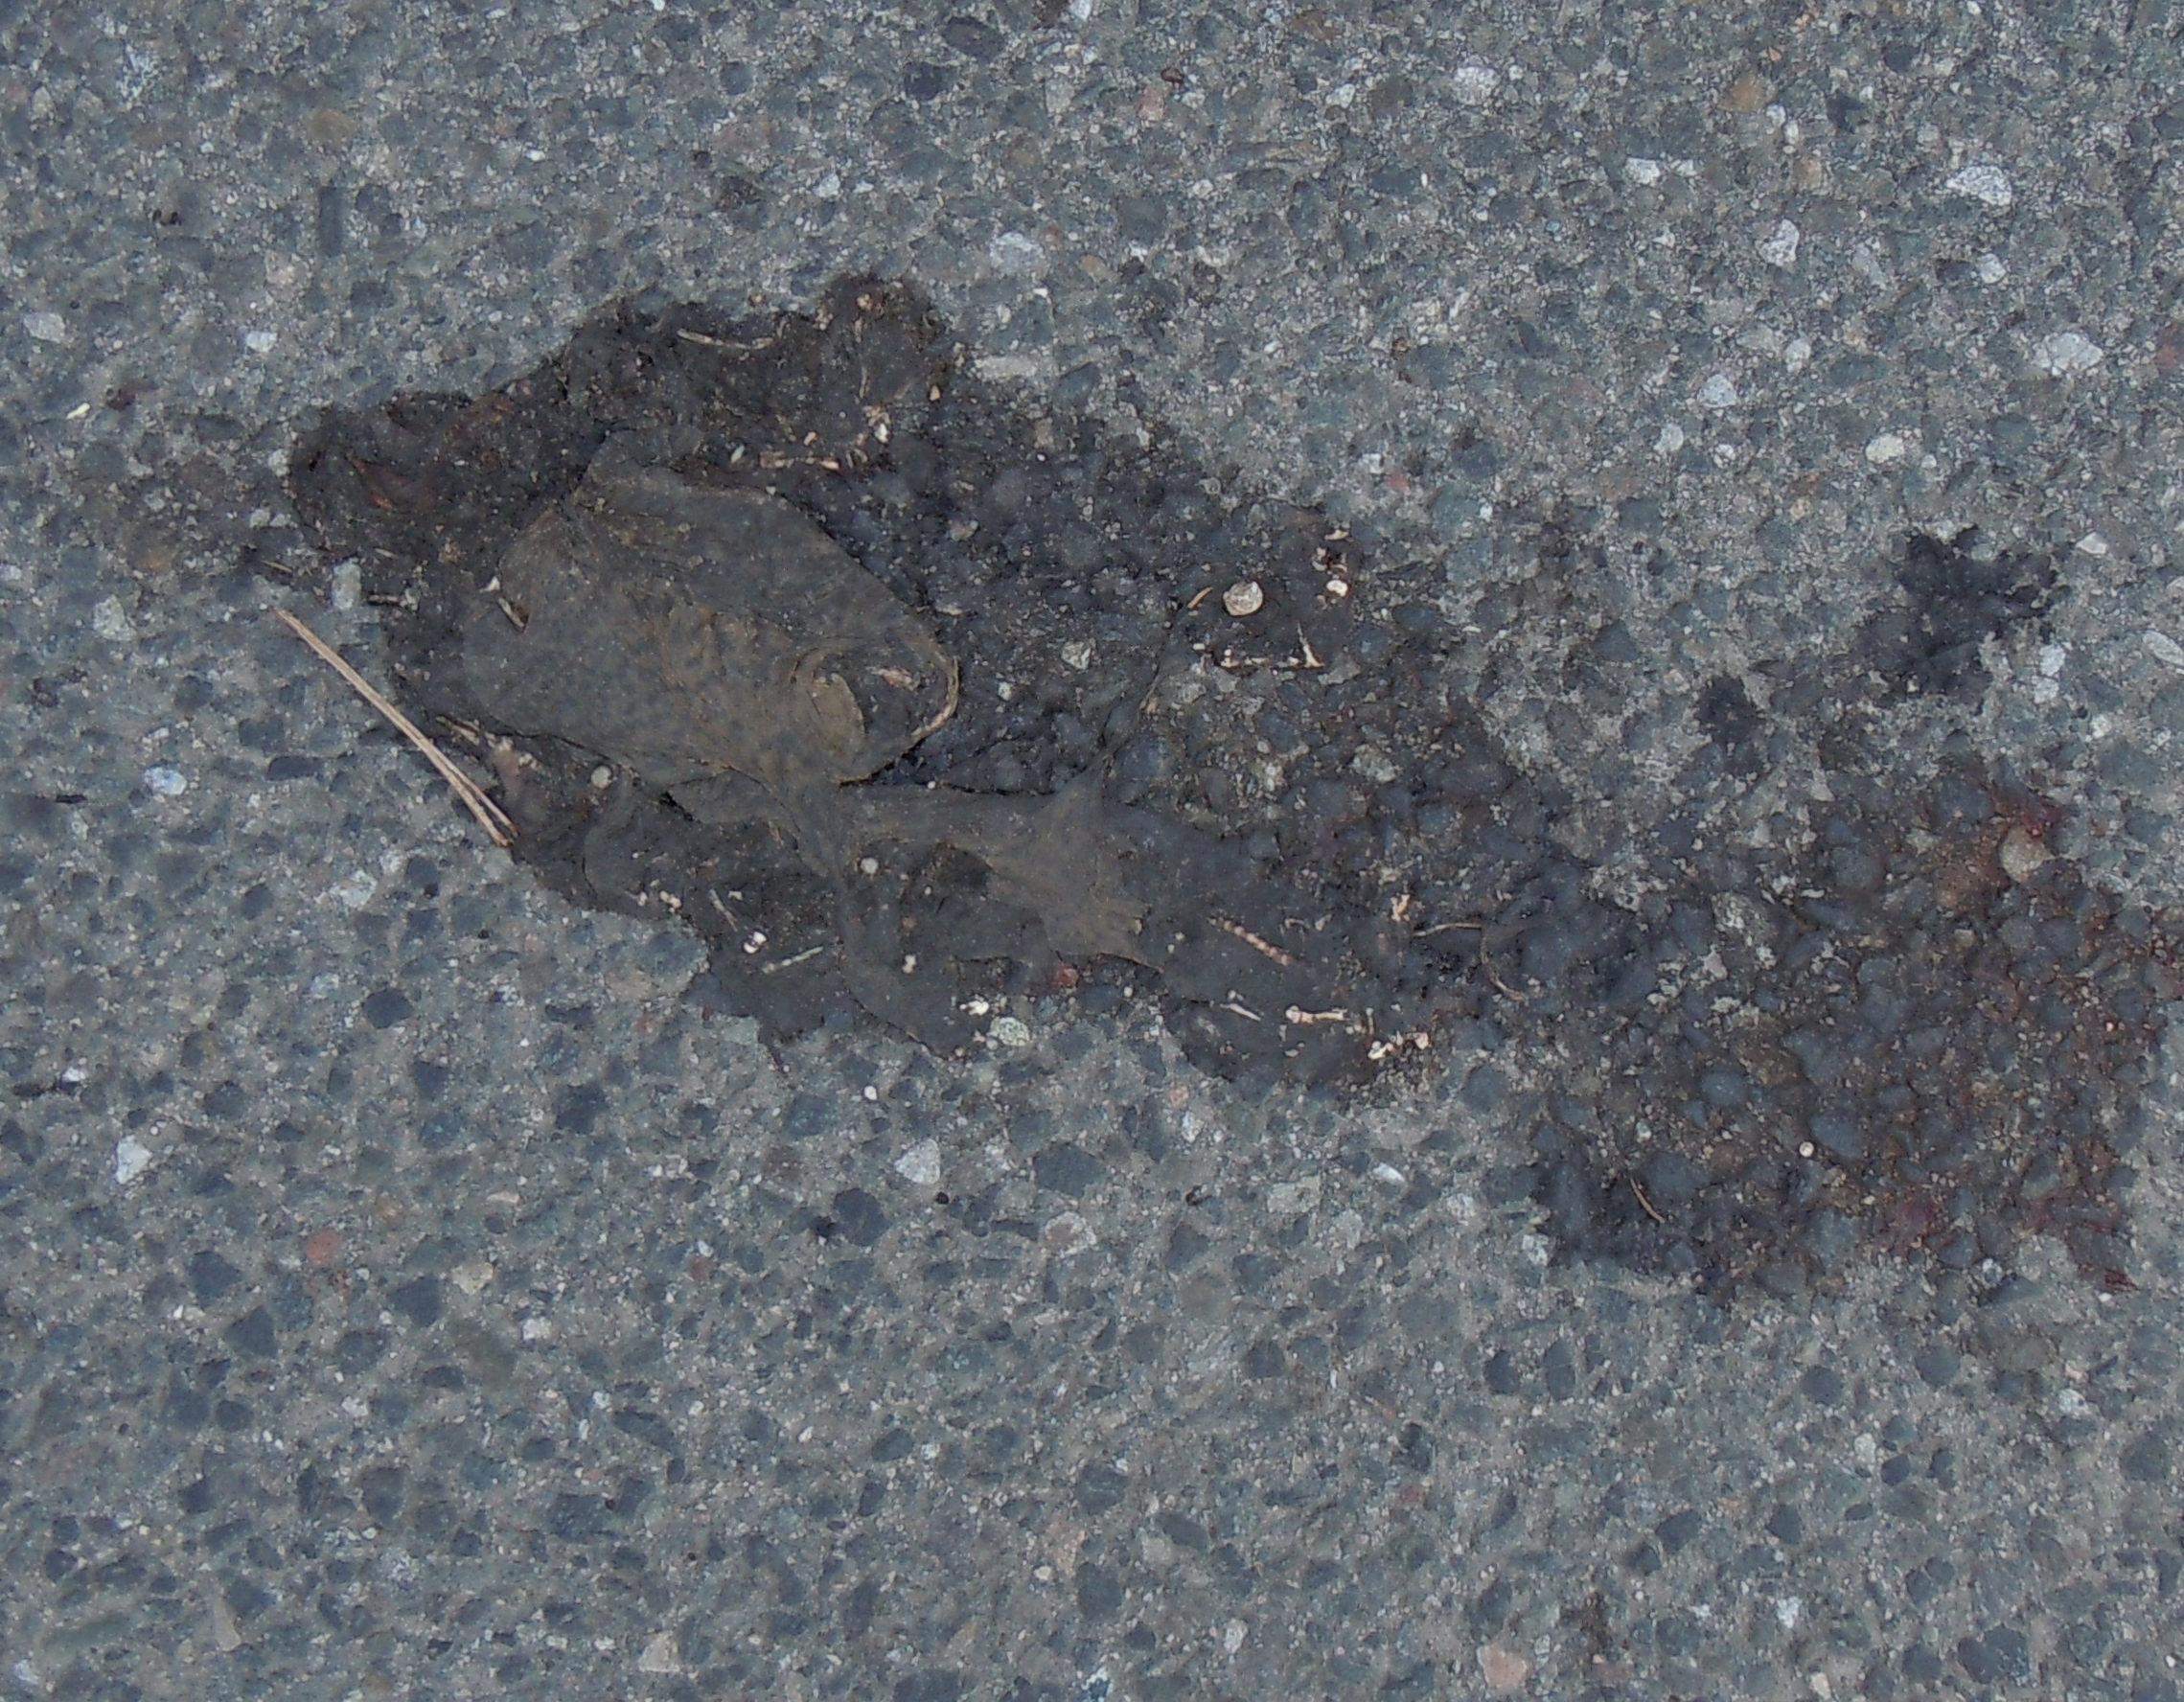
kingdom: Animalia
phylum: Chordata
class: Amphibia
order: Anura
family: Bufonidae
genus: Bufo
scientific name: Bufo bufo
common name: Common toad
